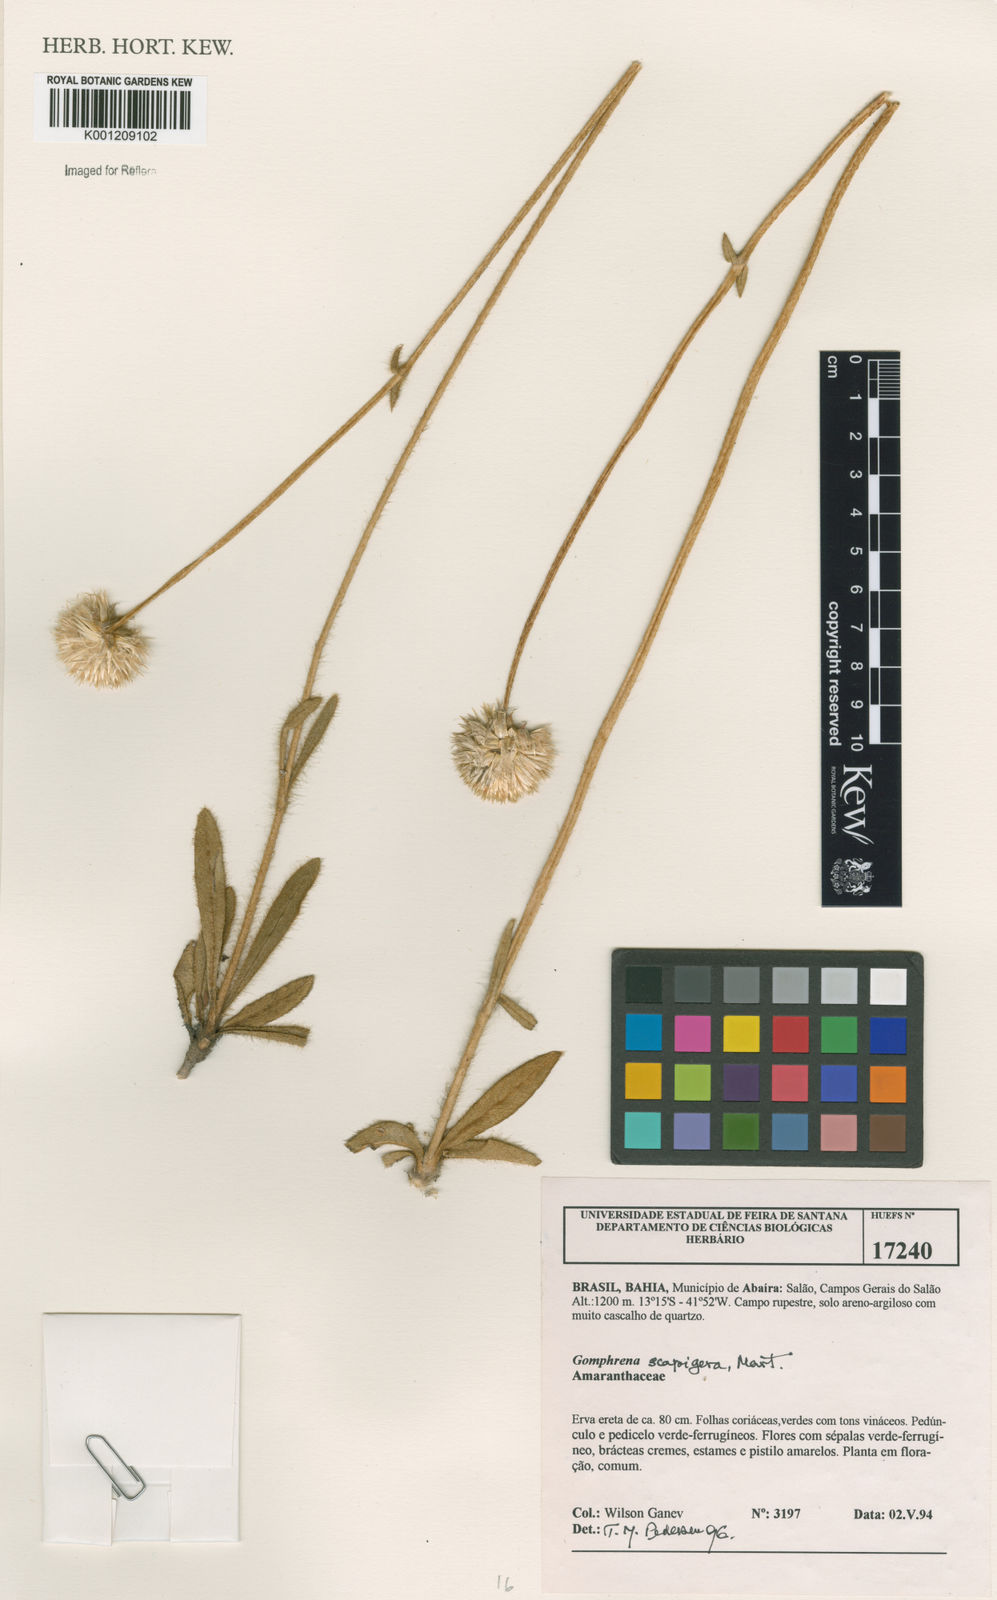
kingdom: Plantae
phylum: Tracheophyta
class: Magnoliopsida
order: Caryophyllales
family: Amaranthaceae
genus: Gomphrena
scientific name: Gomphrena scapigera
